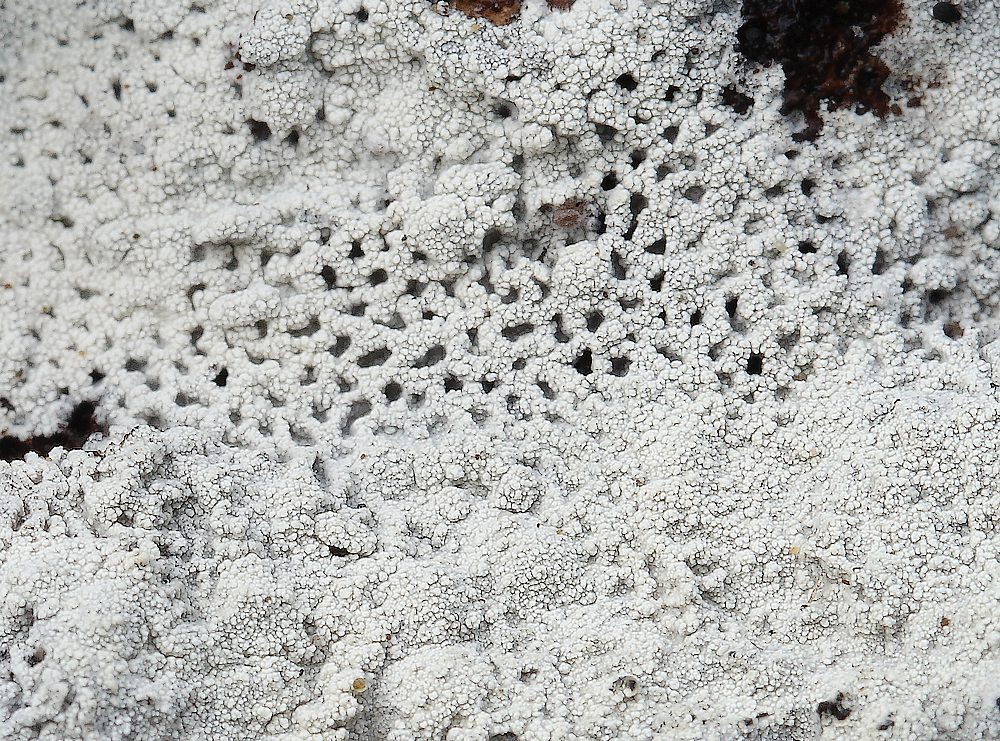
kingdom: Fungi
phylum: Basidiomycota
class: Agaricomycetes
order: Corticiales
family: Corticiaceae
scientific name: Corticiaceae
